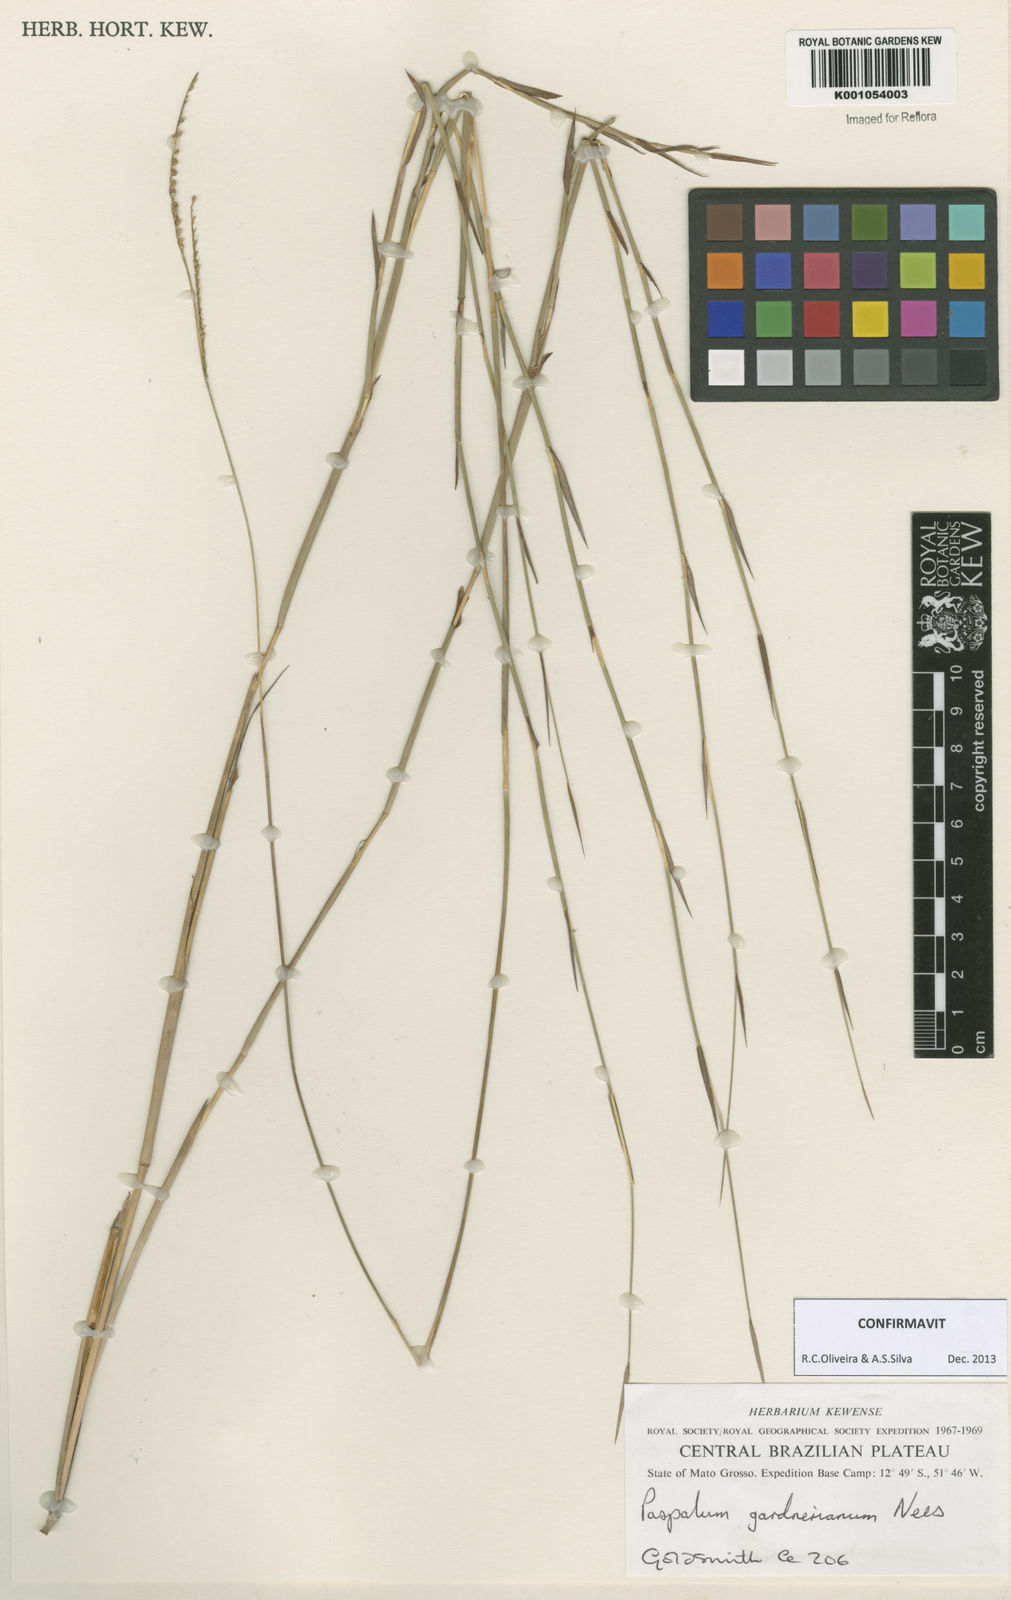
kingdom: Plantae
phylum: Tracheophyta
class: Liliopsida
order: Poales
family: Poaceae
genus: Paspalum
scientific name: Paspalum gardnerianum
